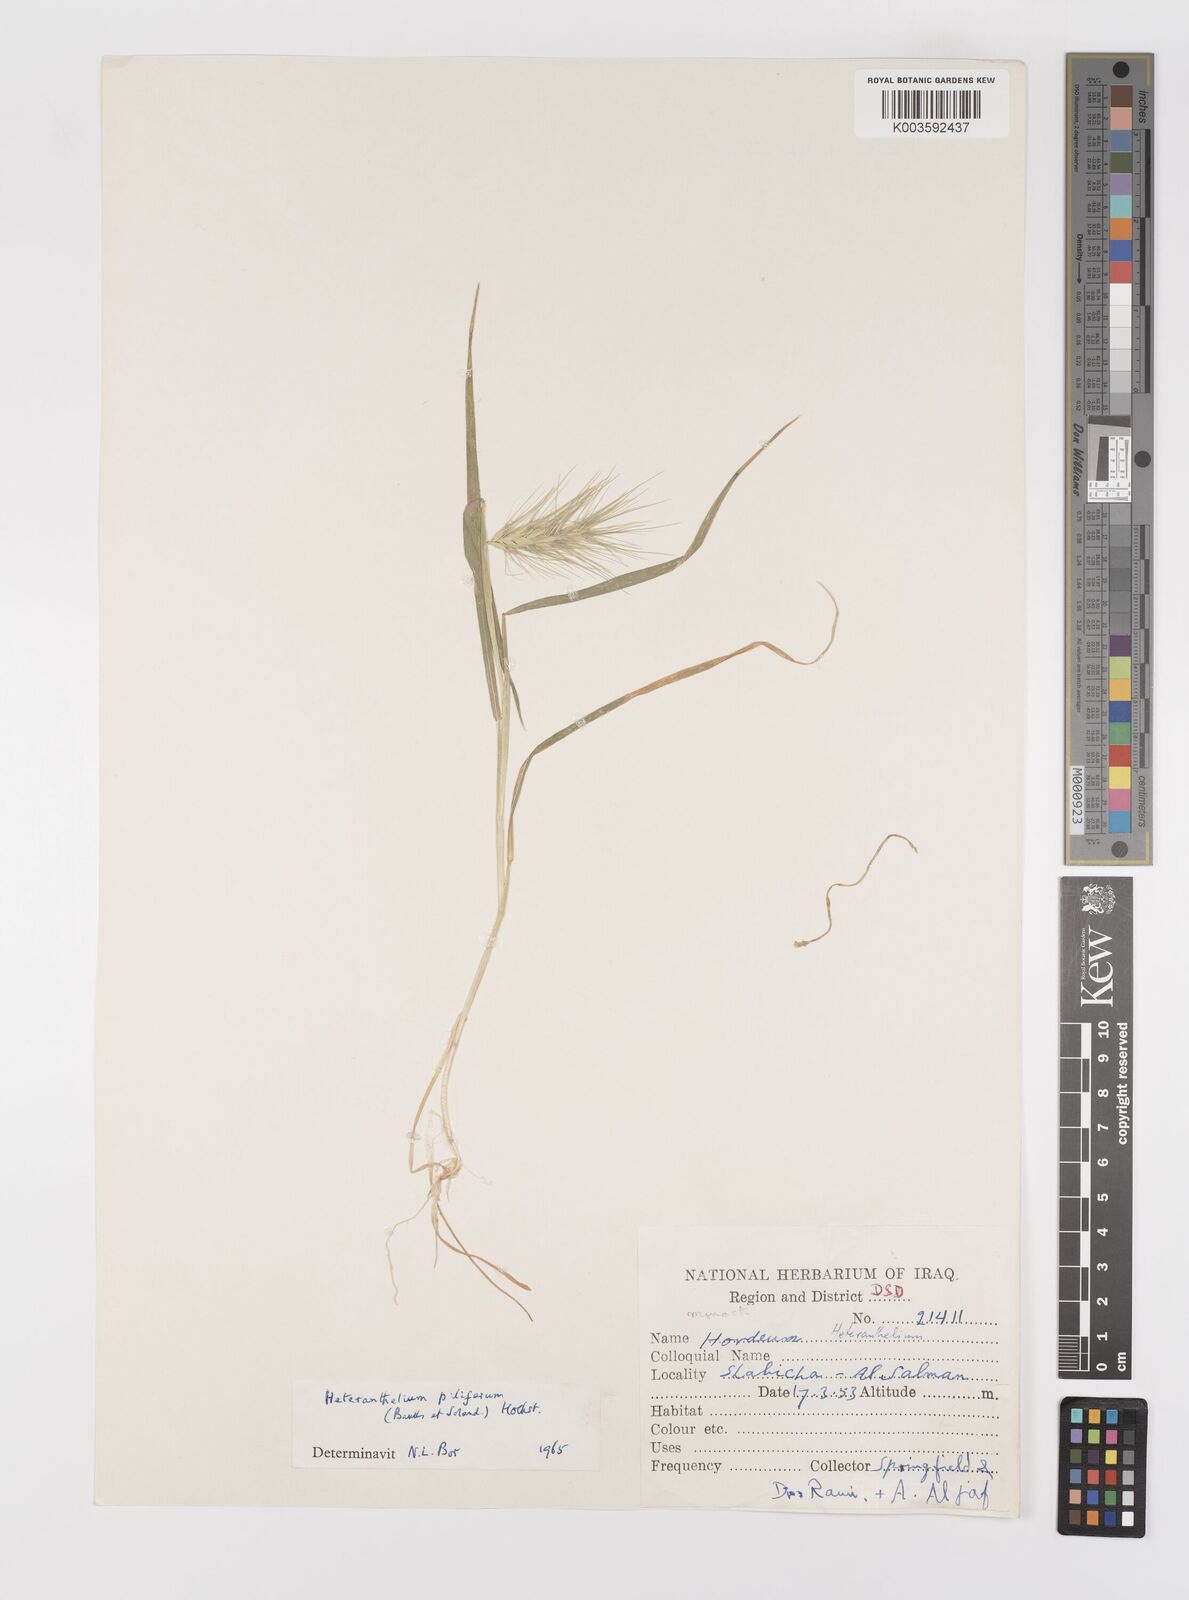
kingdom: Plantae
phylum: Tracheophyta
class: Liliopsida
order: Poales
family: Poaceae
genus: Heteranthelium
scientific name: Heteranthelium piliferum
